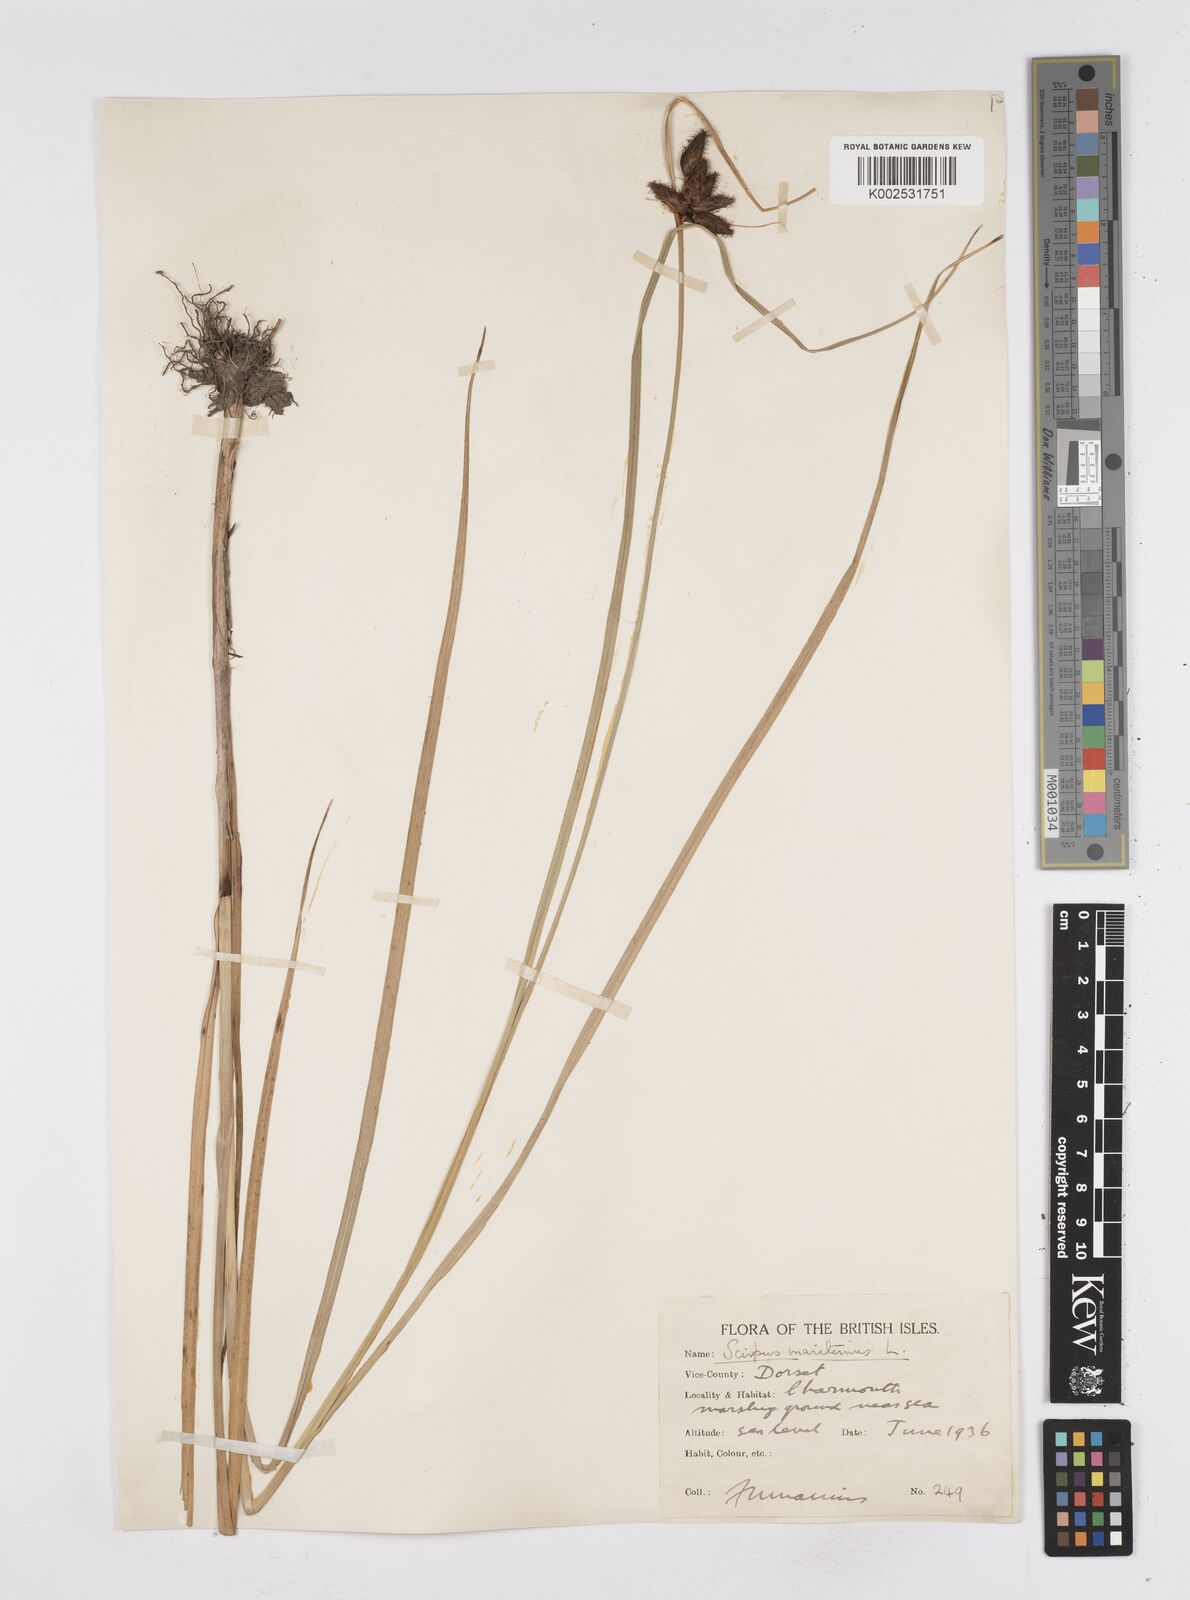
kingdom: Plantae
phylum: Tracheophyta
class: Liliopsida
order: Poales
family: Cyperaceae
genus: Bolboschoenus
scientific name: Bolboschoenus maritimus
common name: Sea club-rush
